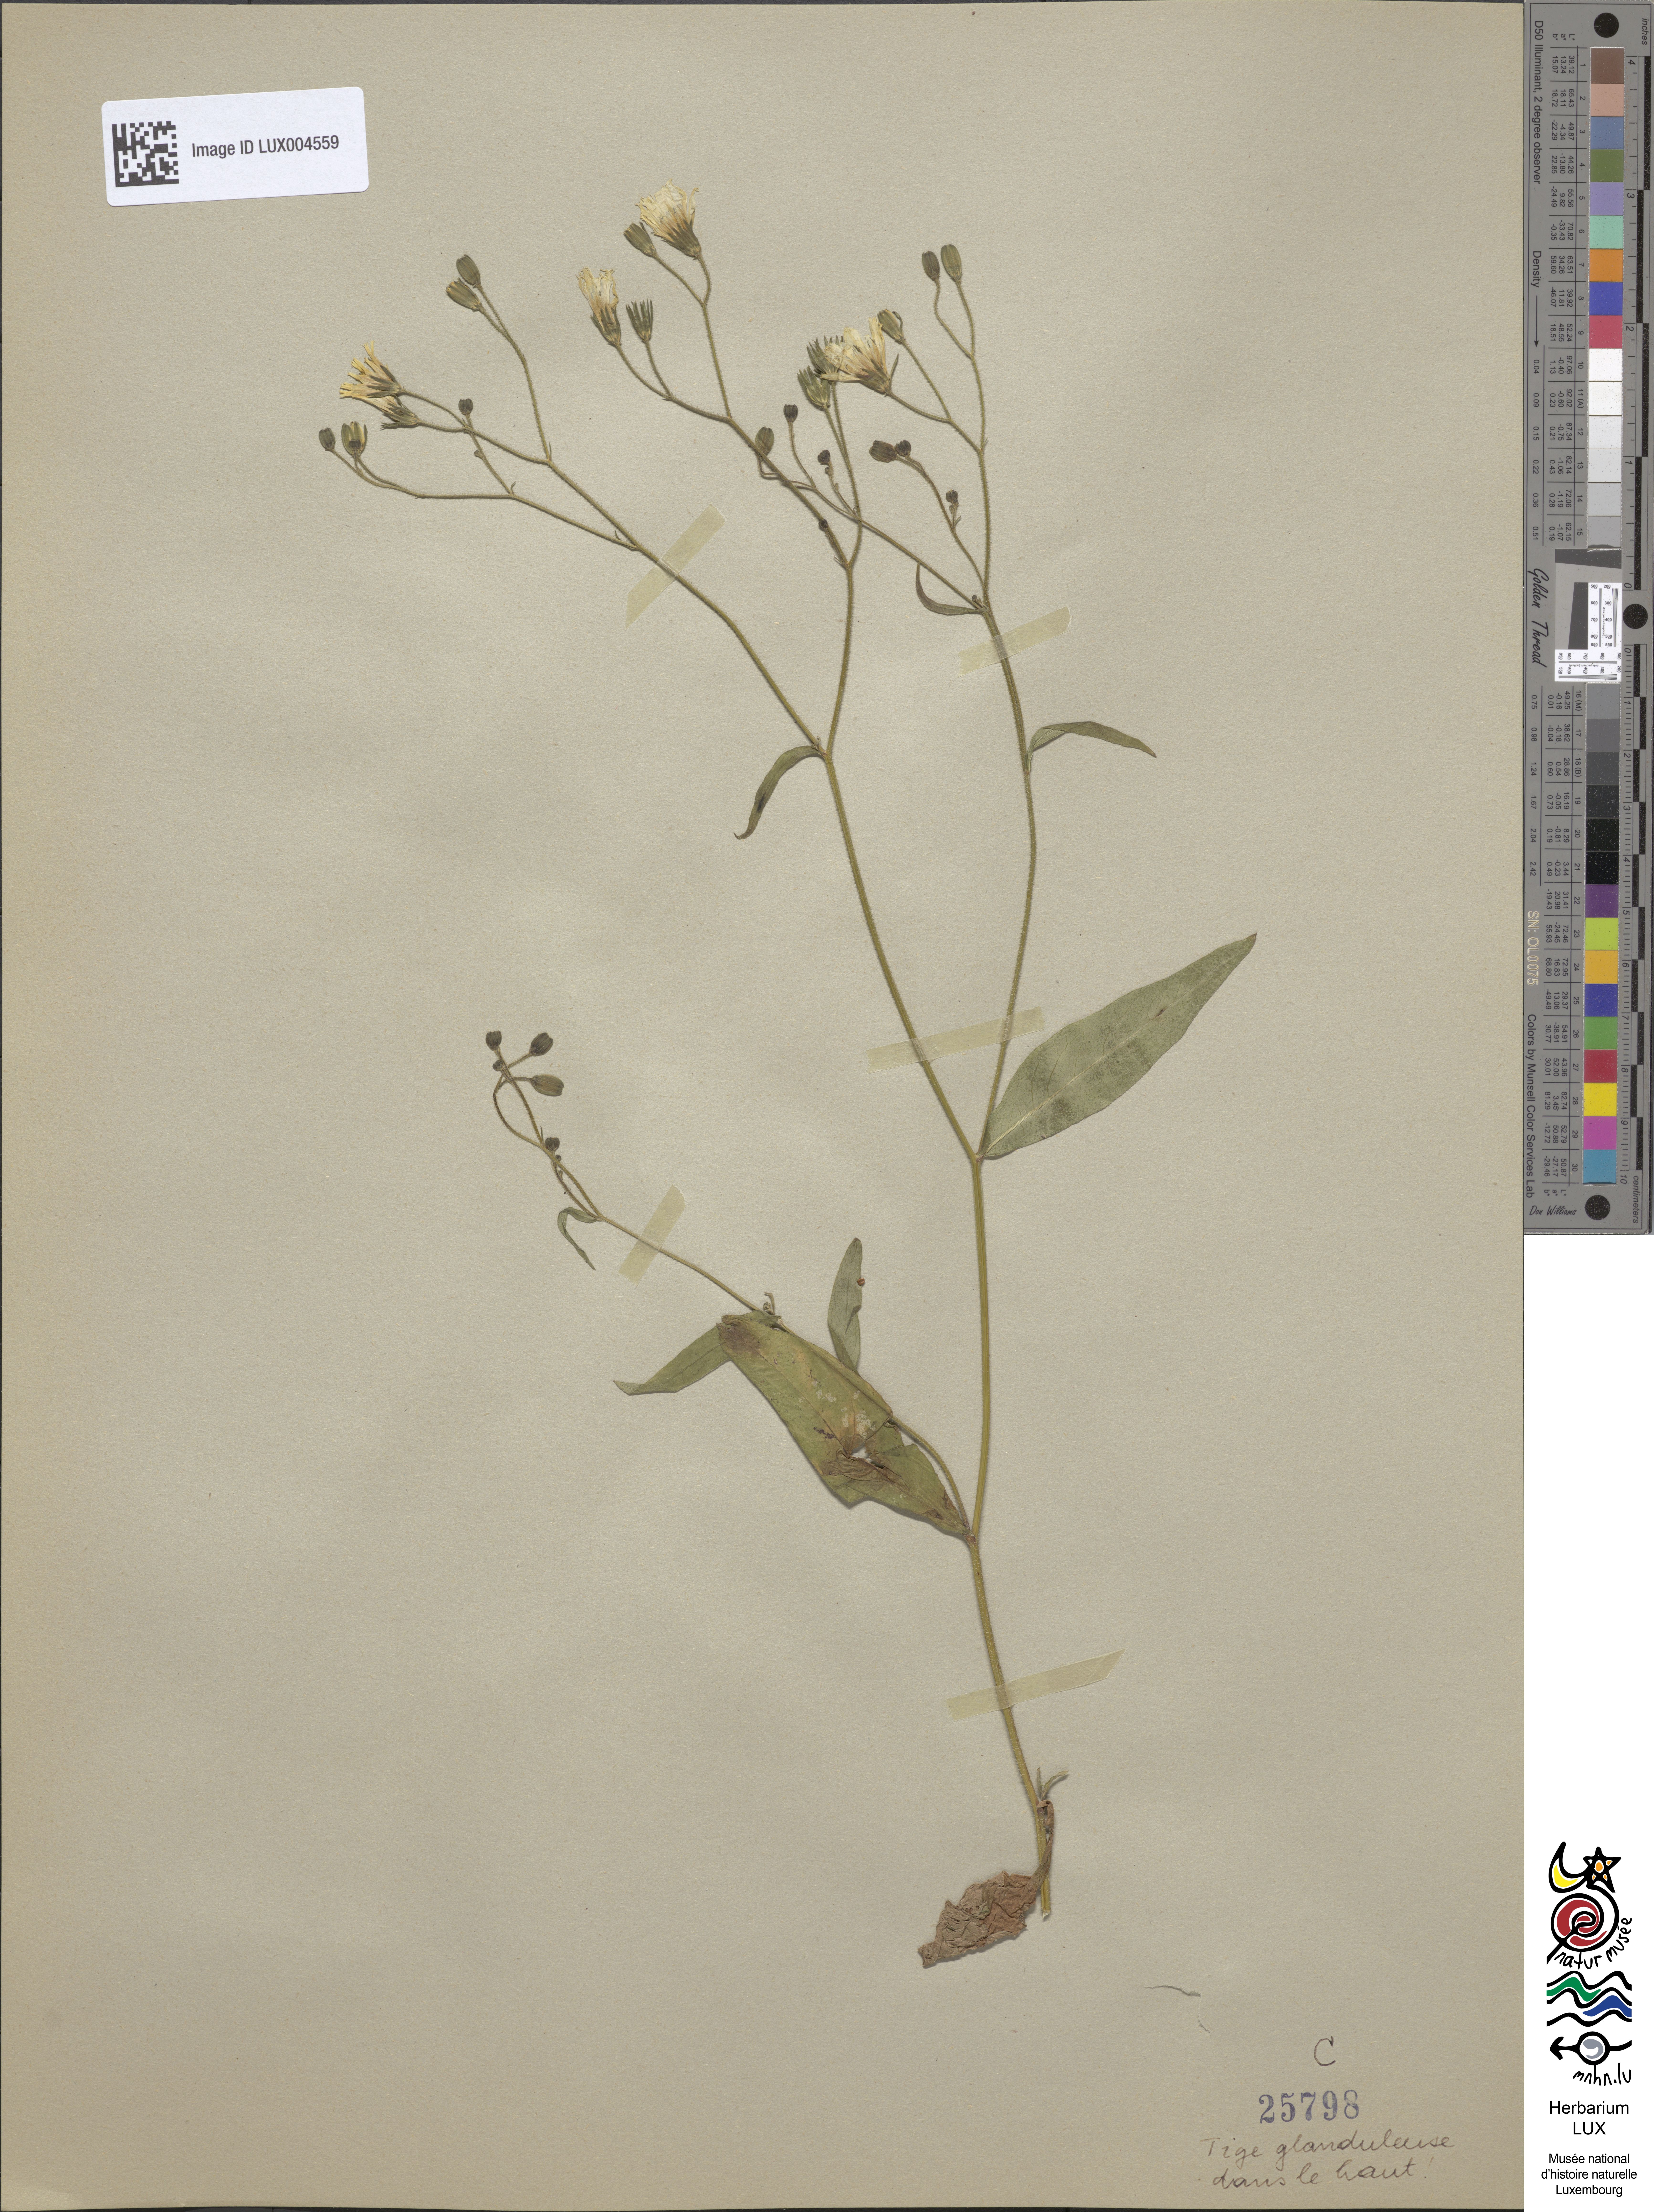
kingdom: Plantae
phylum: Tracheophyta
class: Magnoliopsida
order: Asterales
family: Asteraceae
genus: Lapsana
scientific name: Lapsana communis
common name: Nipplewort
